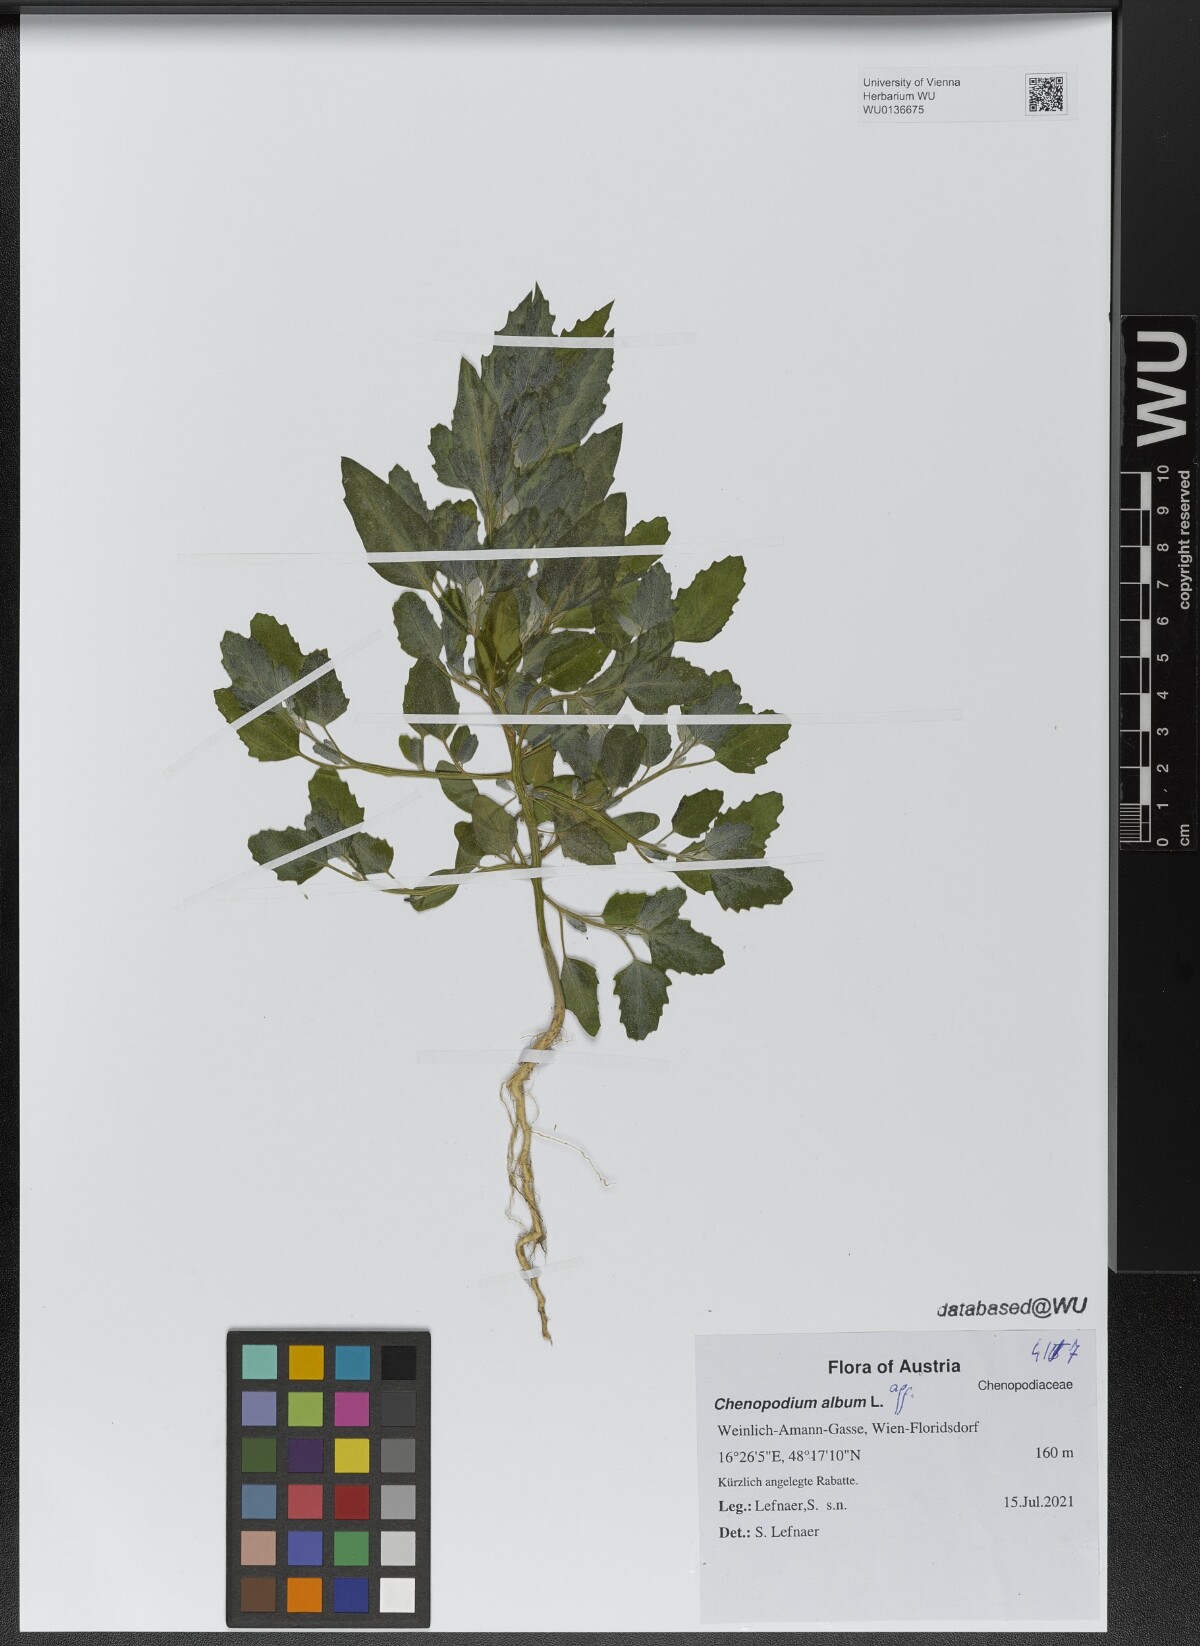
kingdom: Plantae
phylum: Tracheophyta
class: Magnoliopsida
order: Caryophyllales
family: Amaranthaceae
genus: Chenopodium
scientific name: Chenopodium album
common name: Fat-hen
